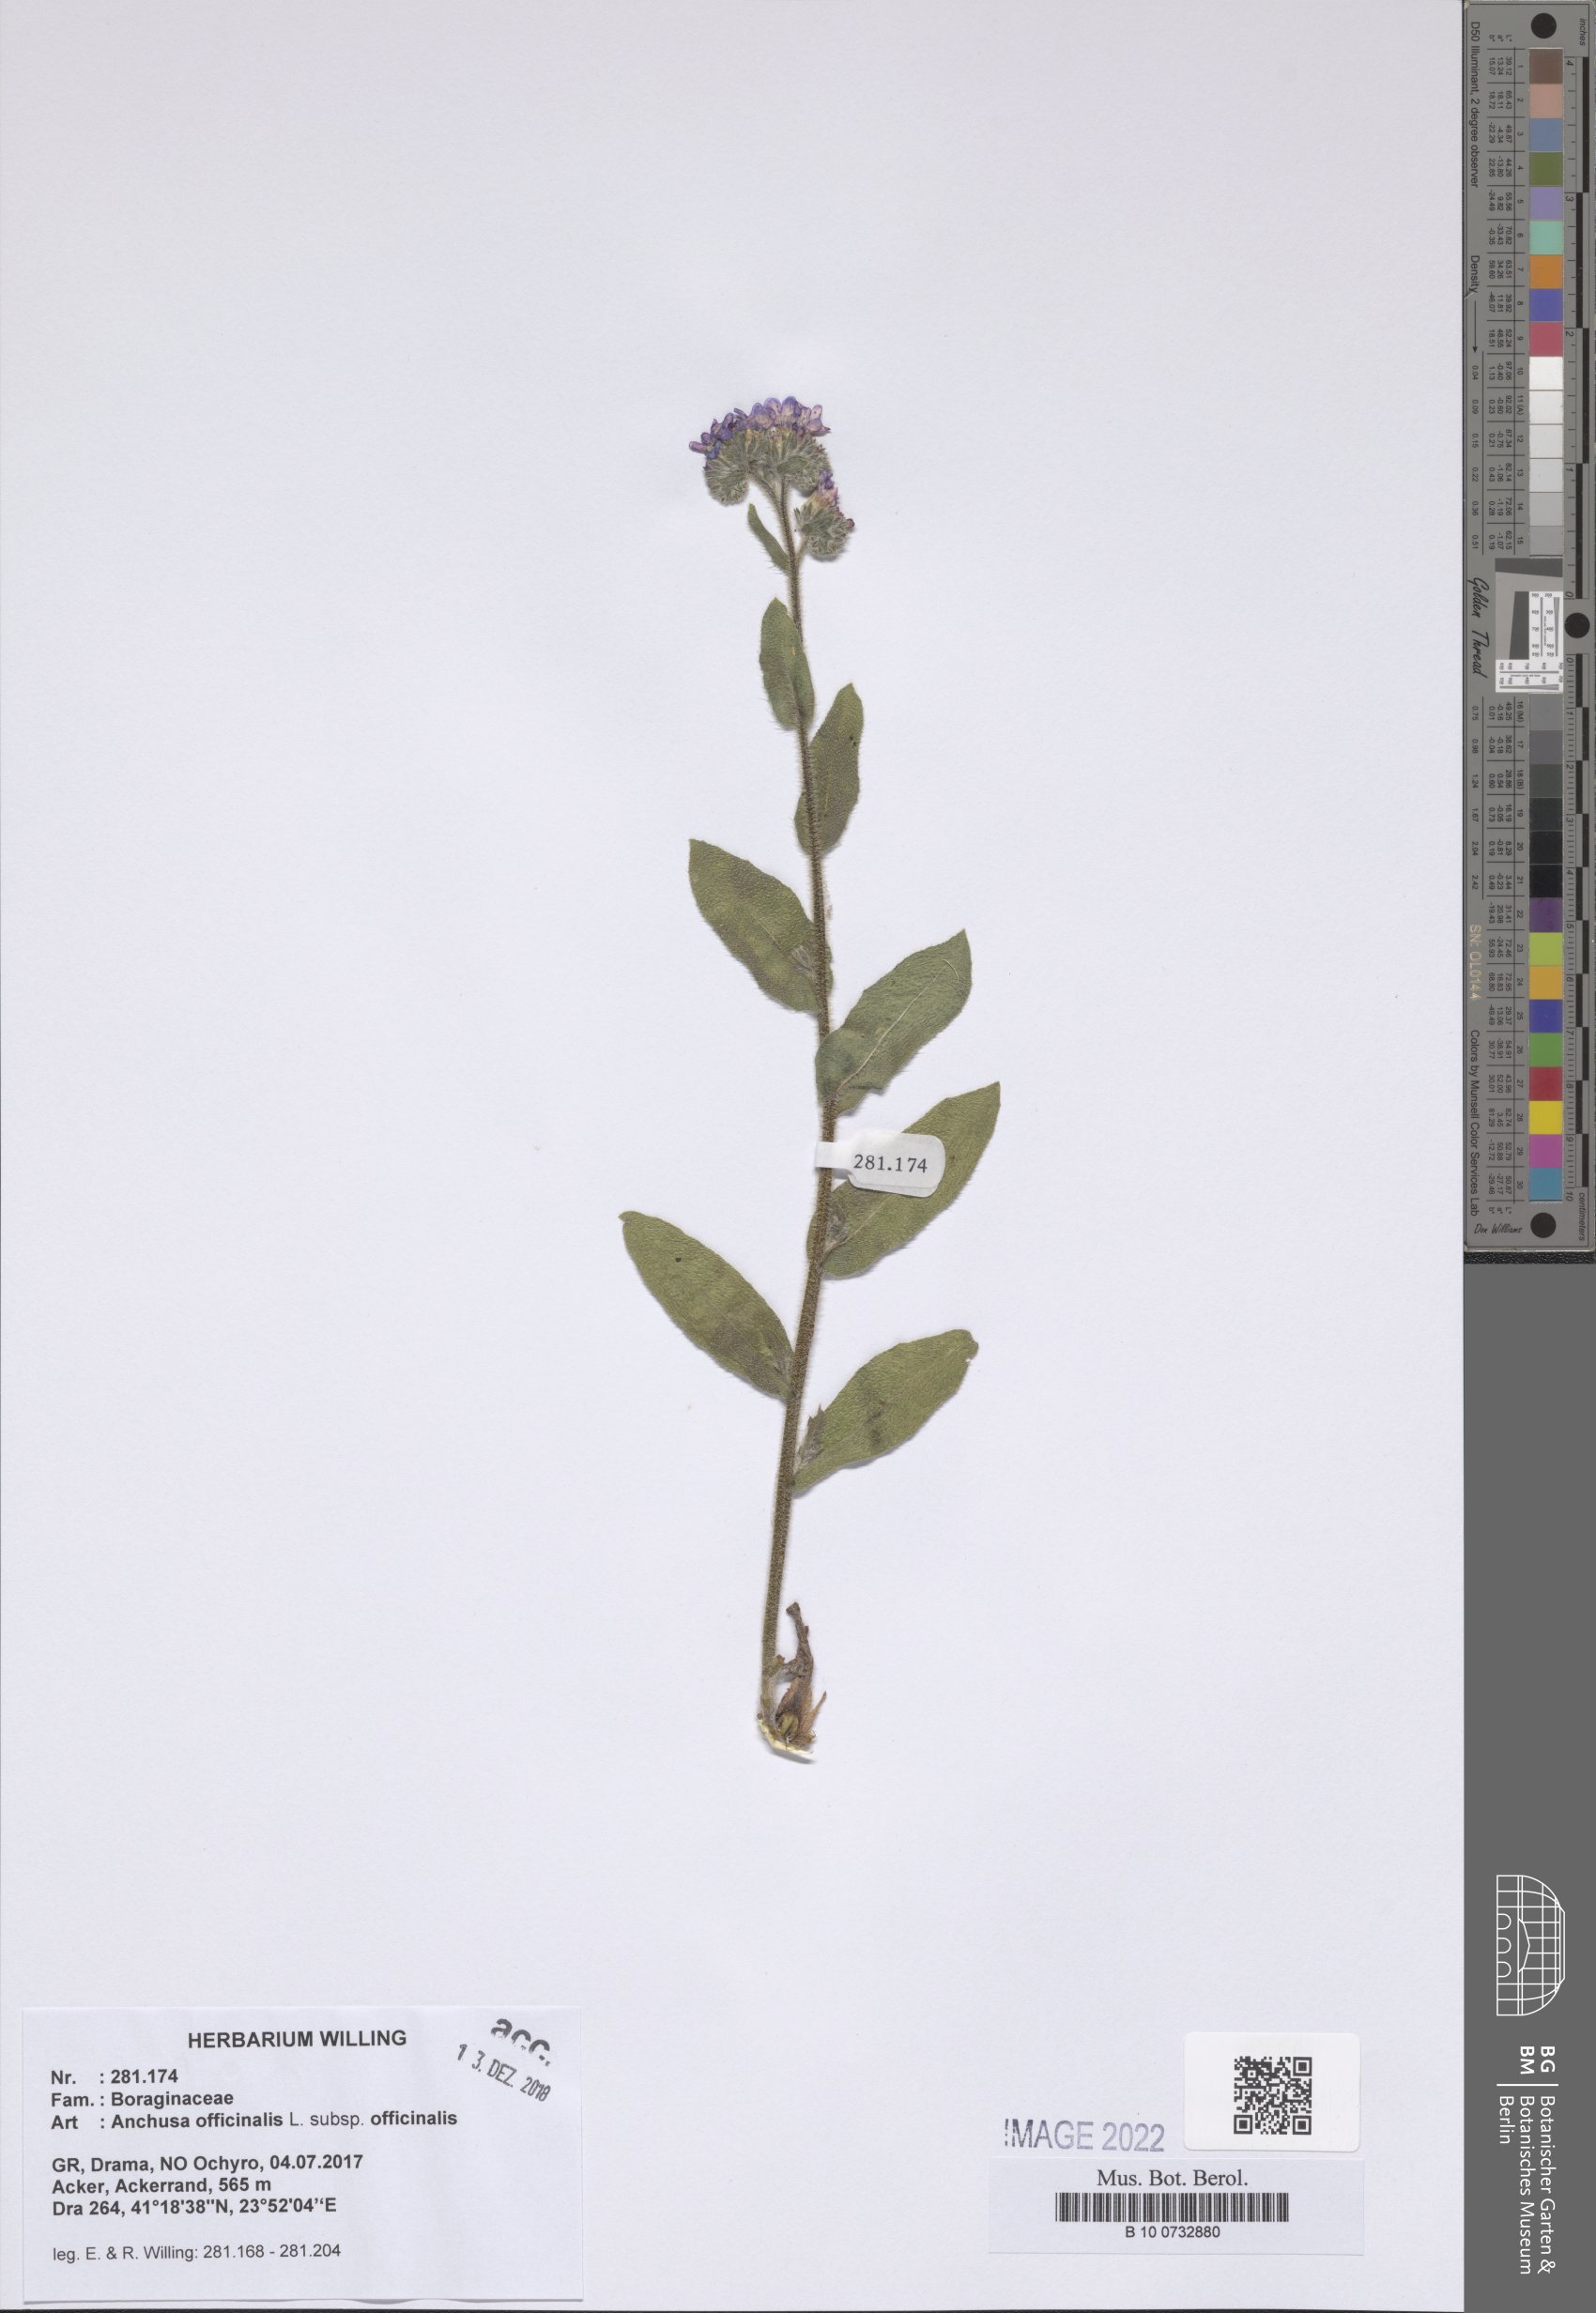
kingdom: Plantae
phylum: Tracheophyta
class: Magnoliopsida
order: Boraginales
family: Boraginaceae
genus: Anchusa
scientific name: Anchusa officinalis
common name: Alkanet
